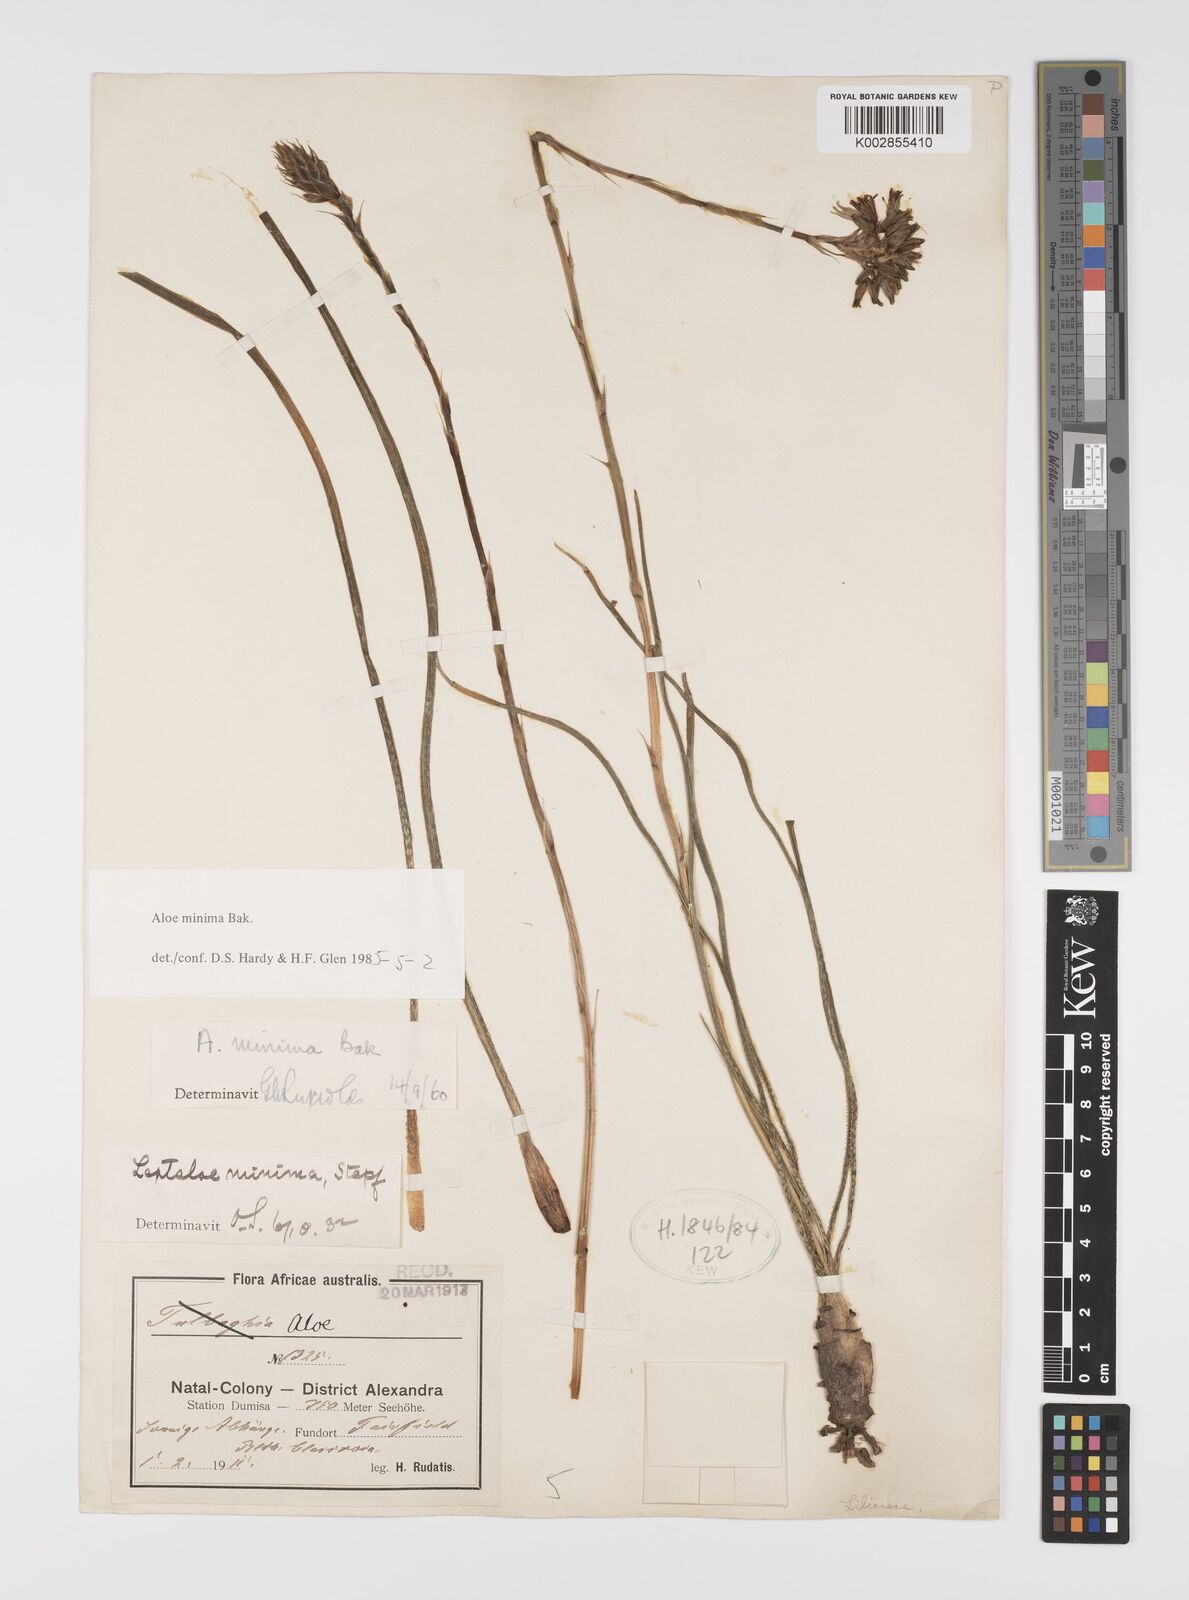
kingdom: Plantae
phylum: Tracheophyta
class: Liliopsida
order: Asparagales
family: Asphodelaceae
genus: Aloe
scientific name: Aloe minima
